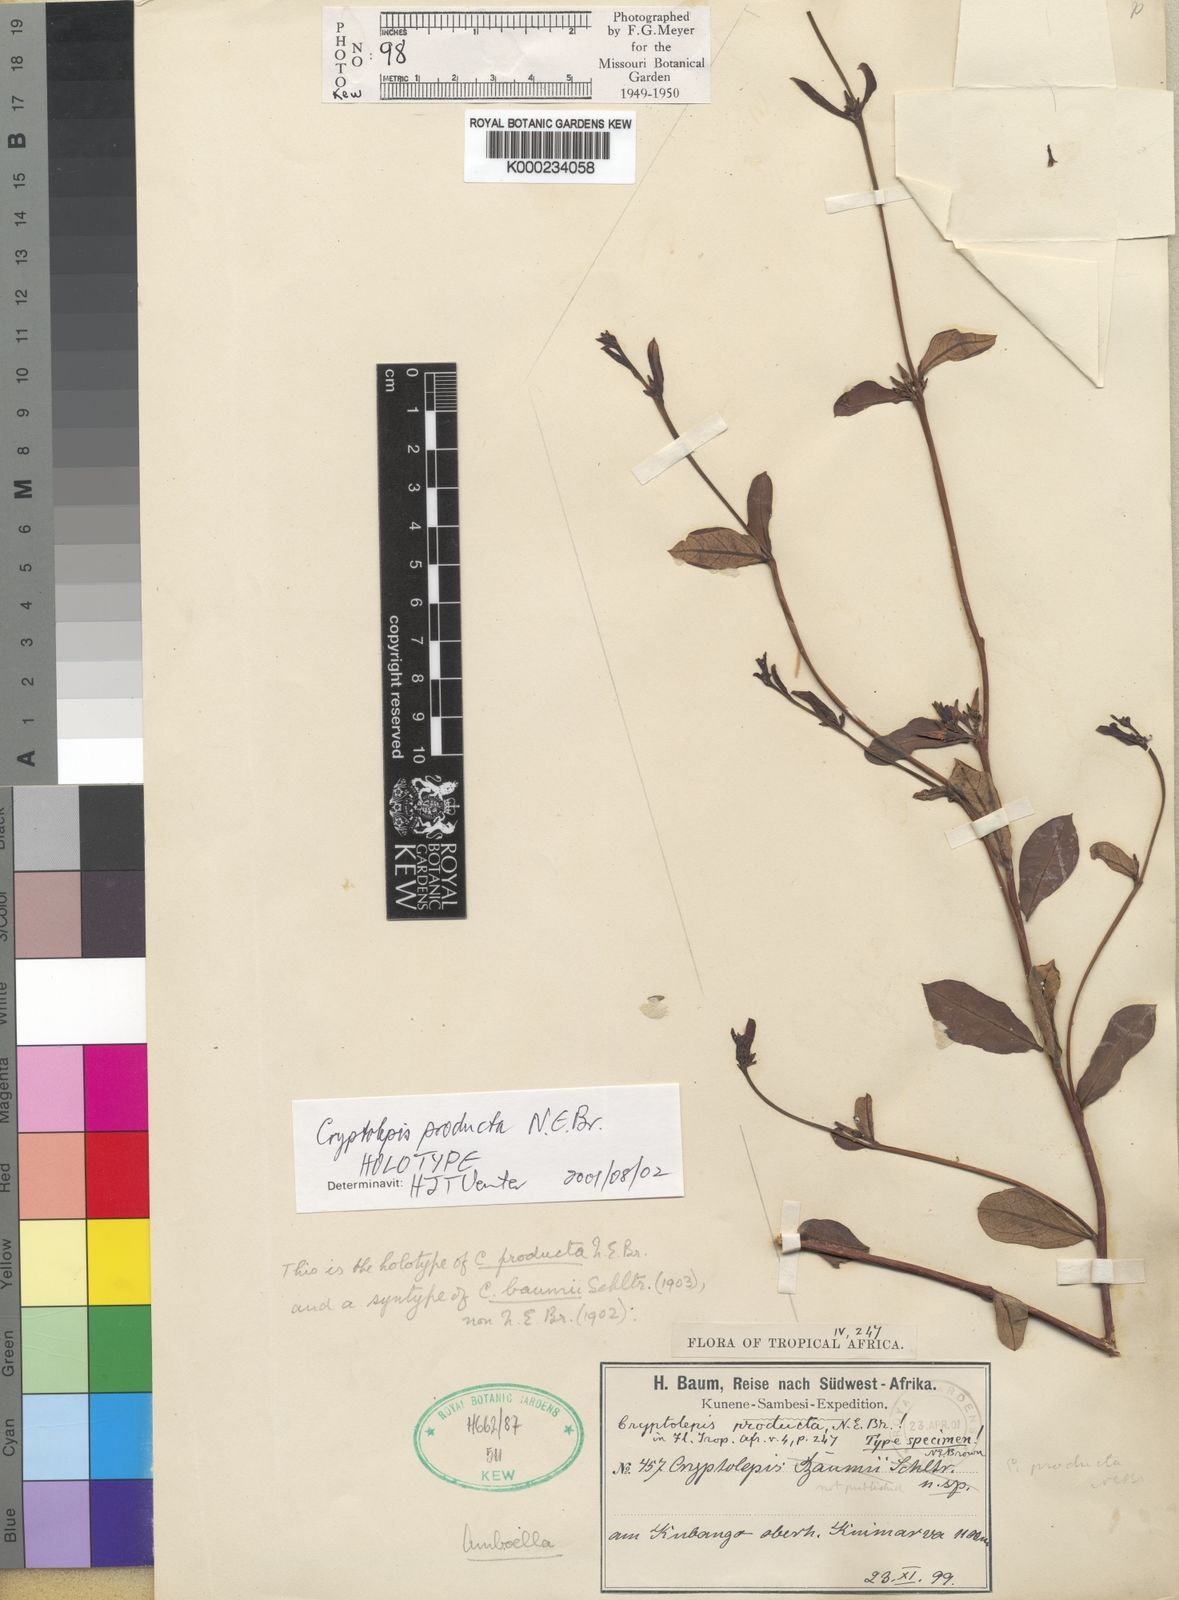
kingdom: Plantae
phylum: Tracheophyta
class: Magnoliopsida
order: Gentianales
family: Apocynaceae
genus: Cryptolepis
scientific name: Cryptolepis oblongifolia
